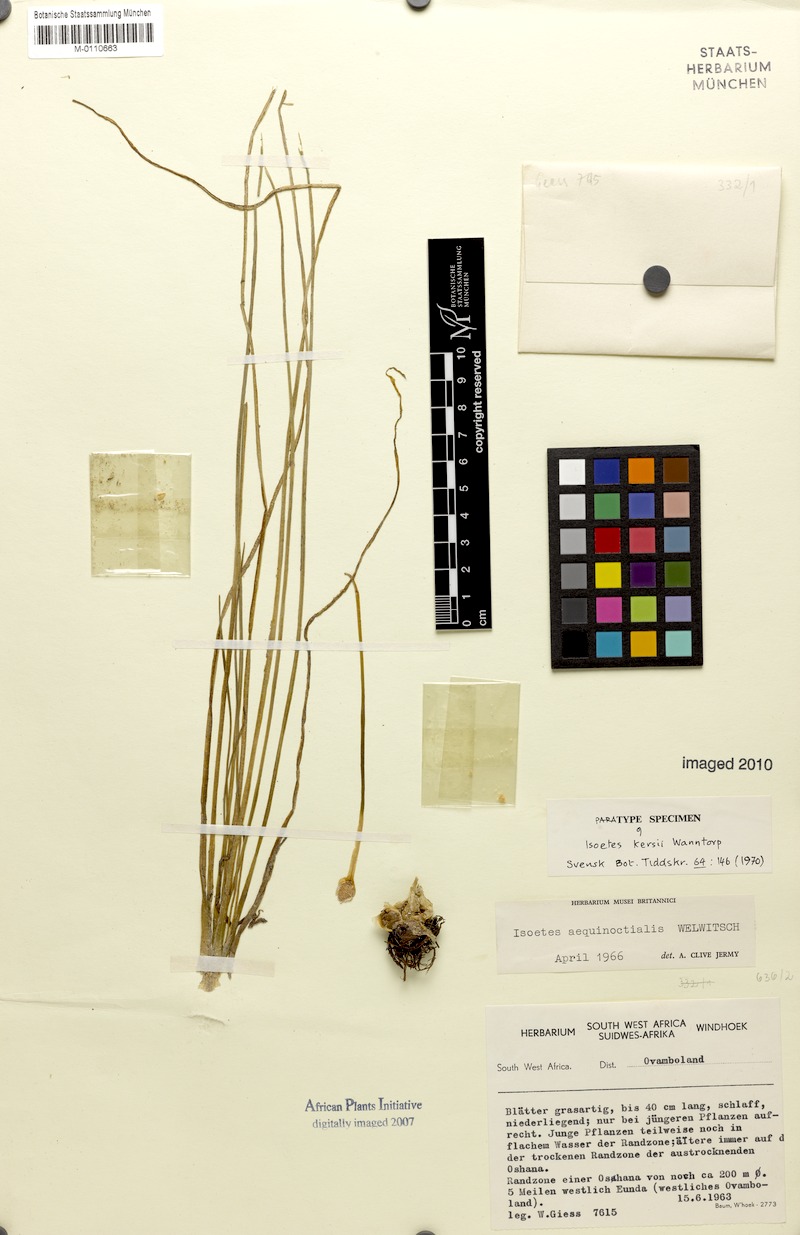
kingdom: Plantae
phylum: Tracheophyta
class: Lycopodiopsida
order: Isoetales
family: Isoetaceae
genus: Isoetes
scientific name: Isoetes schweinfurthii
